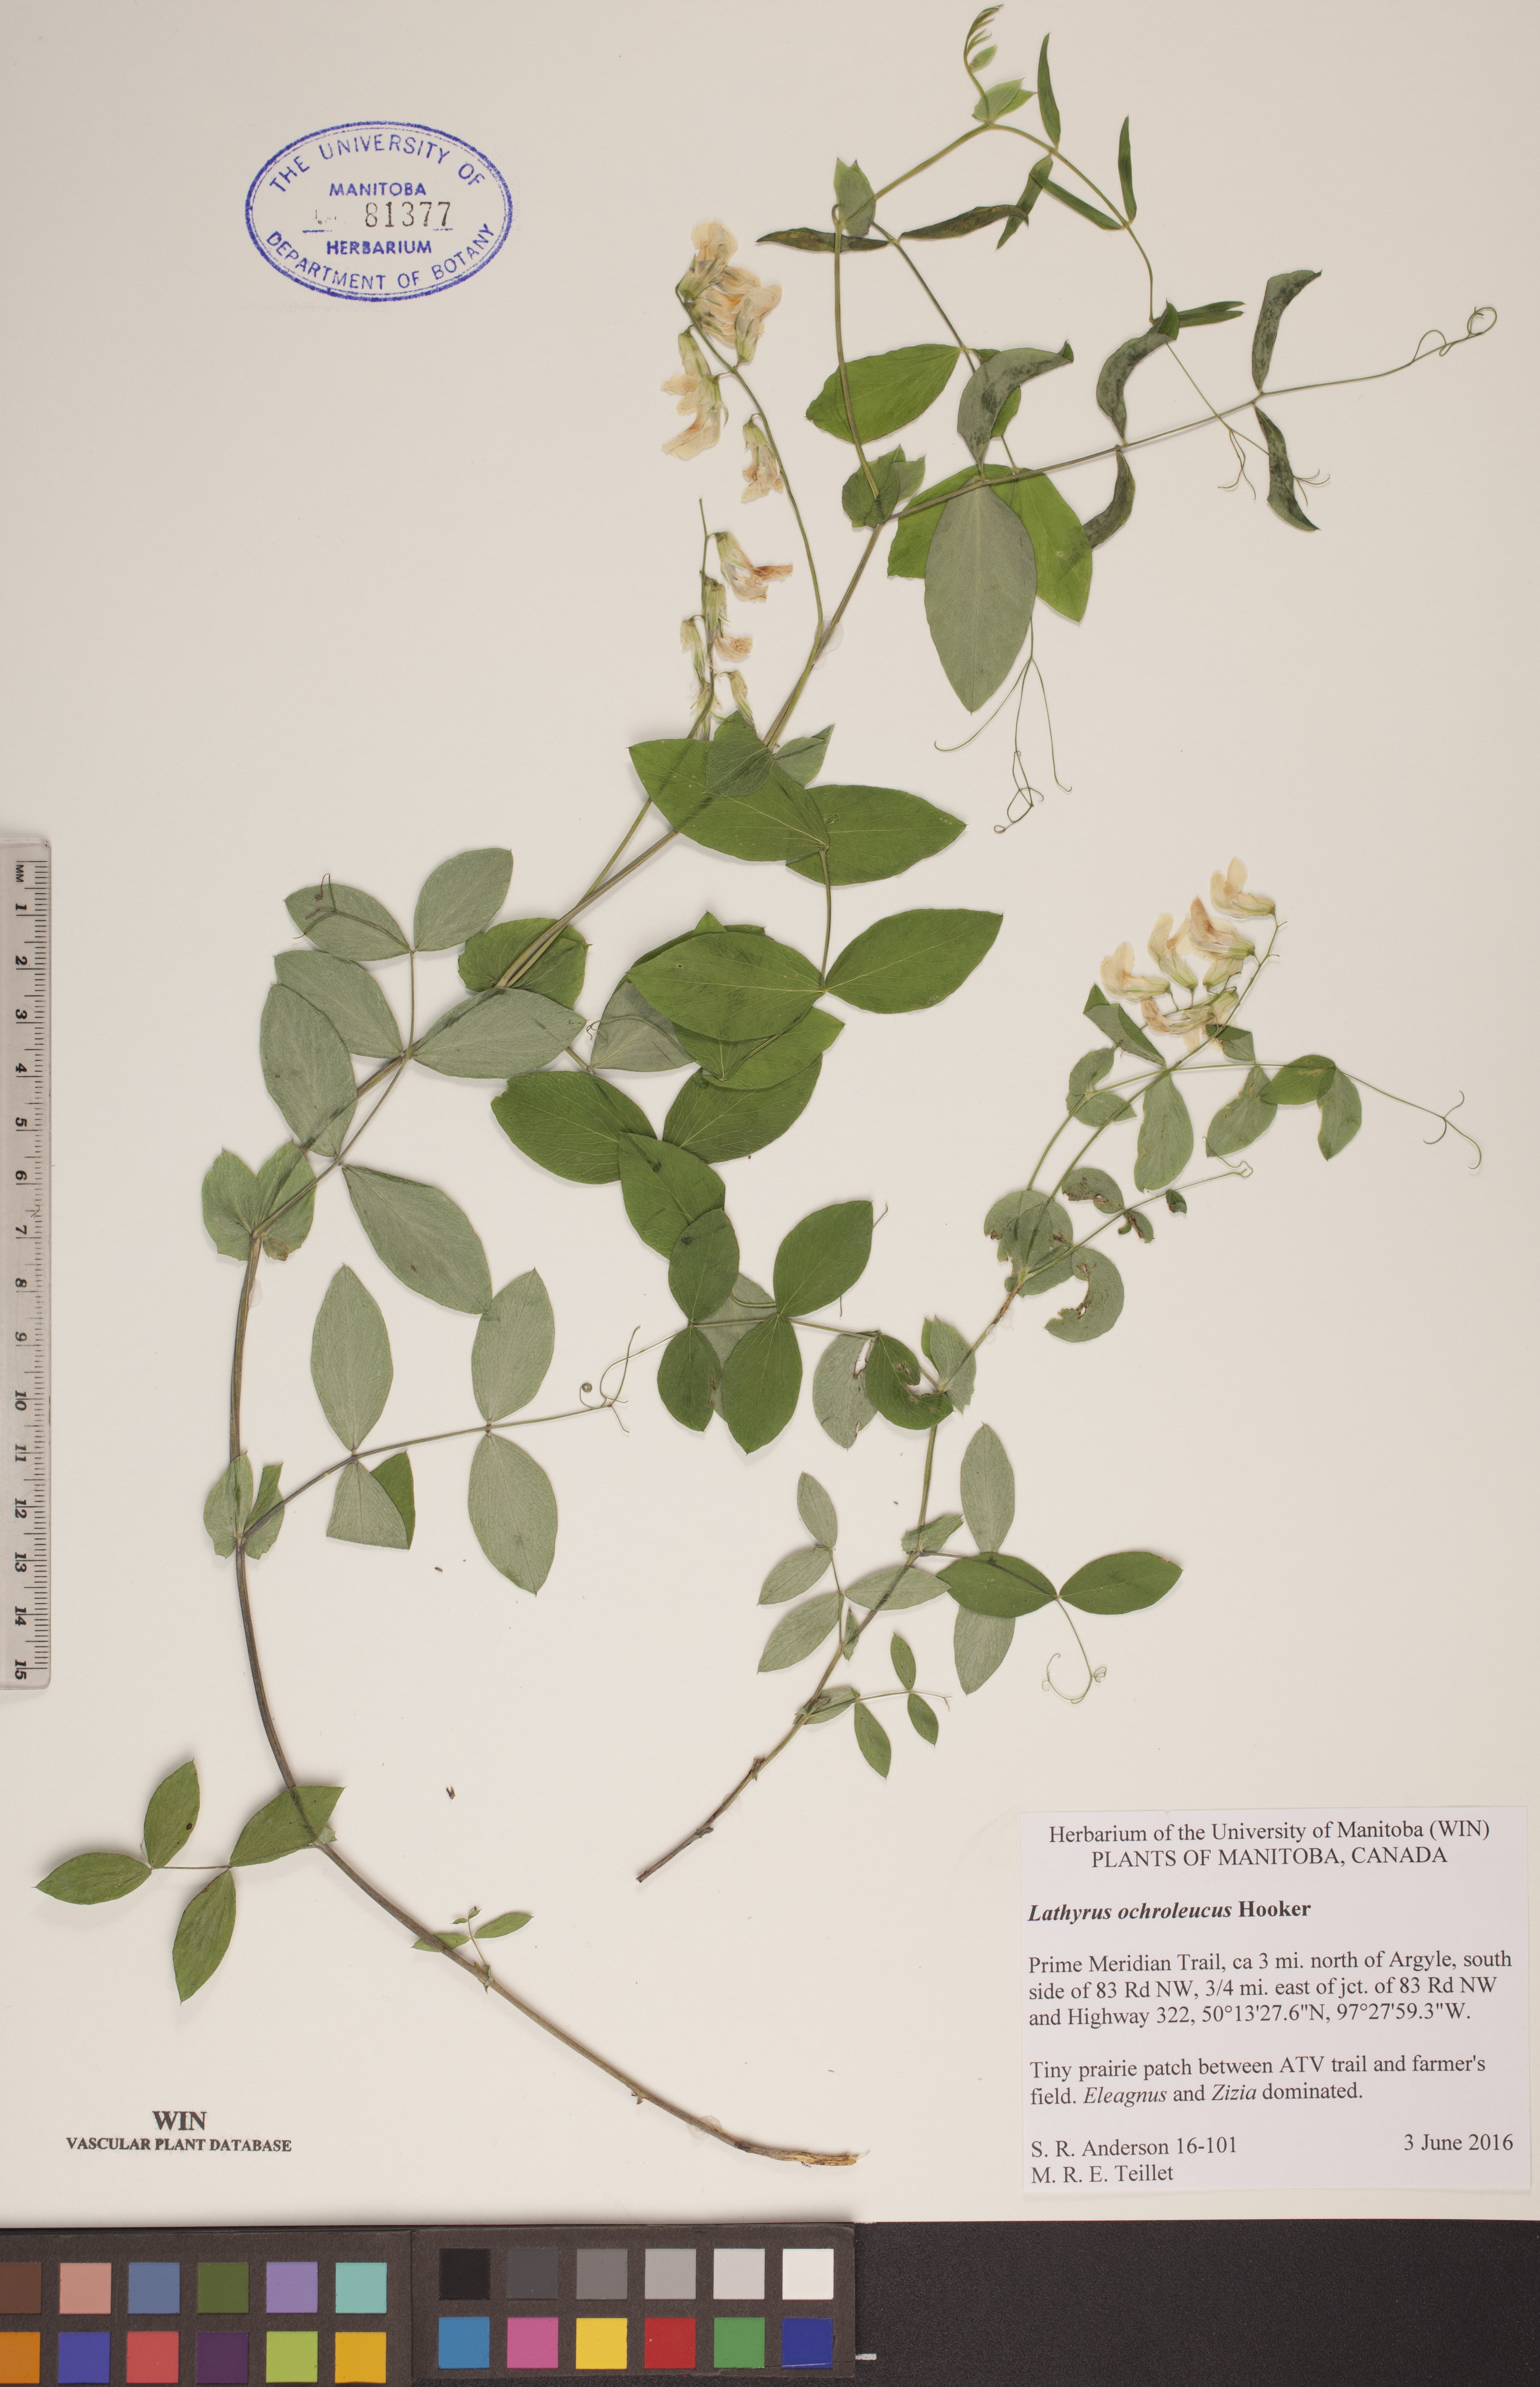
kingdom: Plantae
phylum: Tracheophyta
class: Magnoliopsida
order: Fabales
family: Fabaceae
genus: Lathyrus
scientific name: Lathyrus ochroleucus
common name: Pale vetchling
